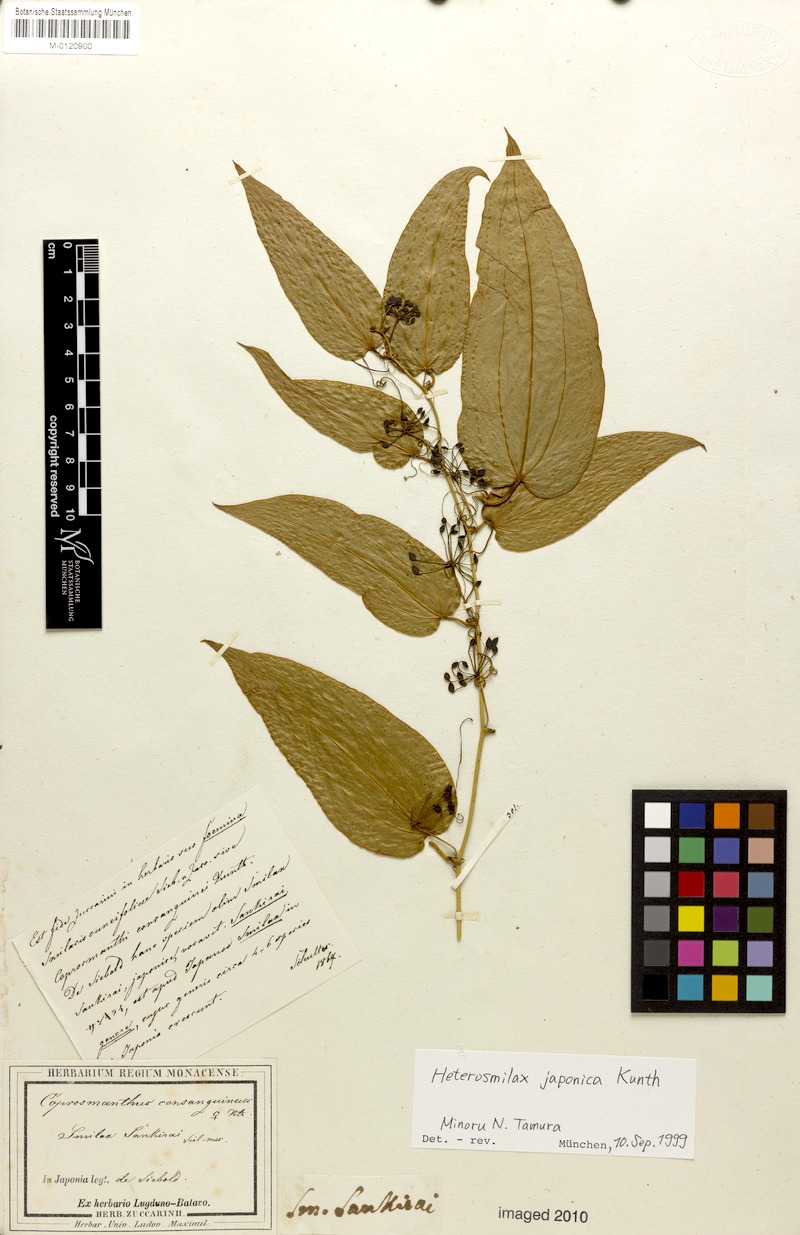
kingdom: Plantae
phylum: Tracheophyta
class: Liliopsida
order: Liliales
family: Smilacaceae
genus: Smilax
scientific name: Smilax bockii
